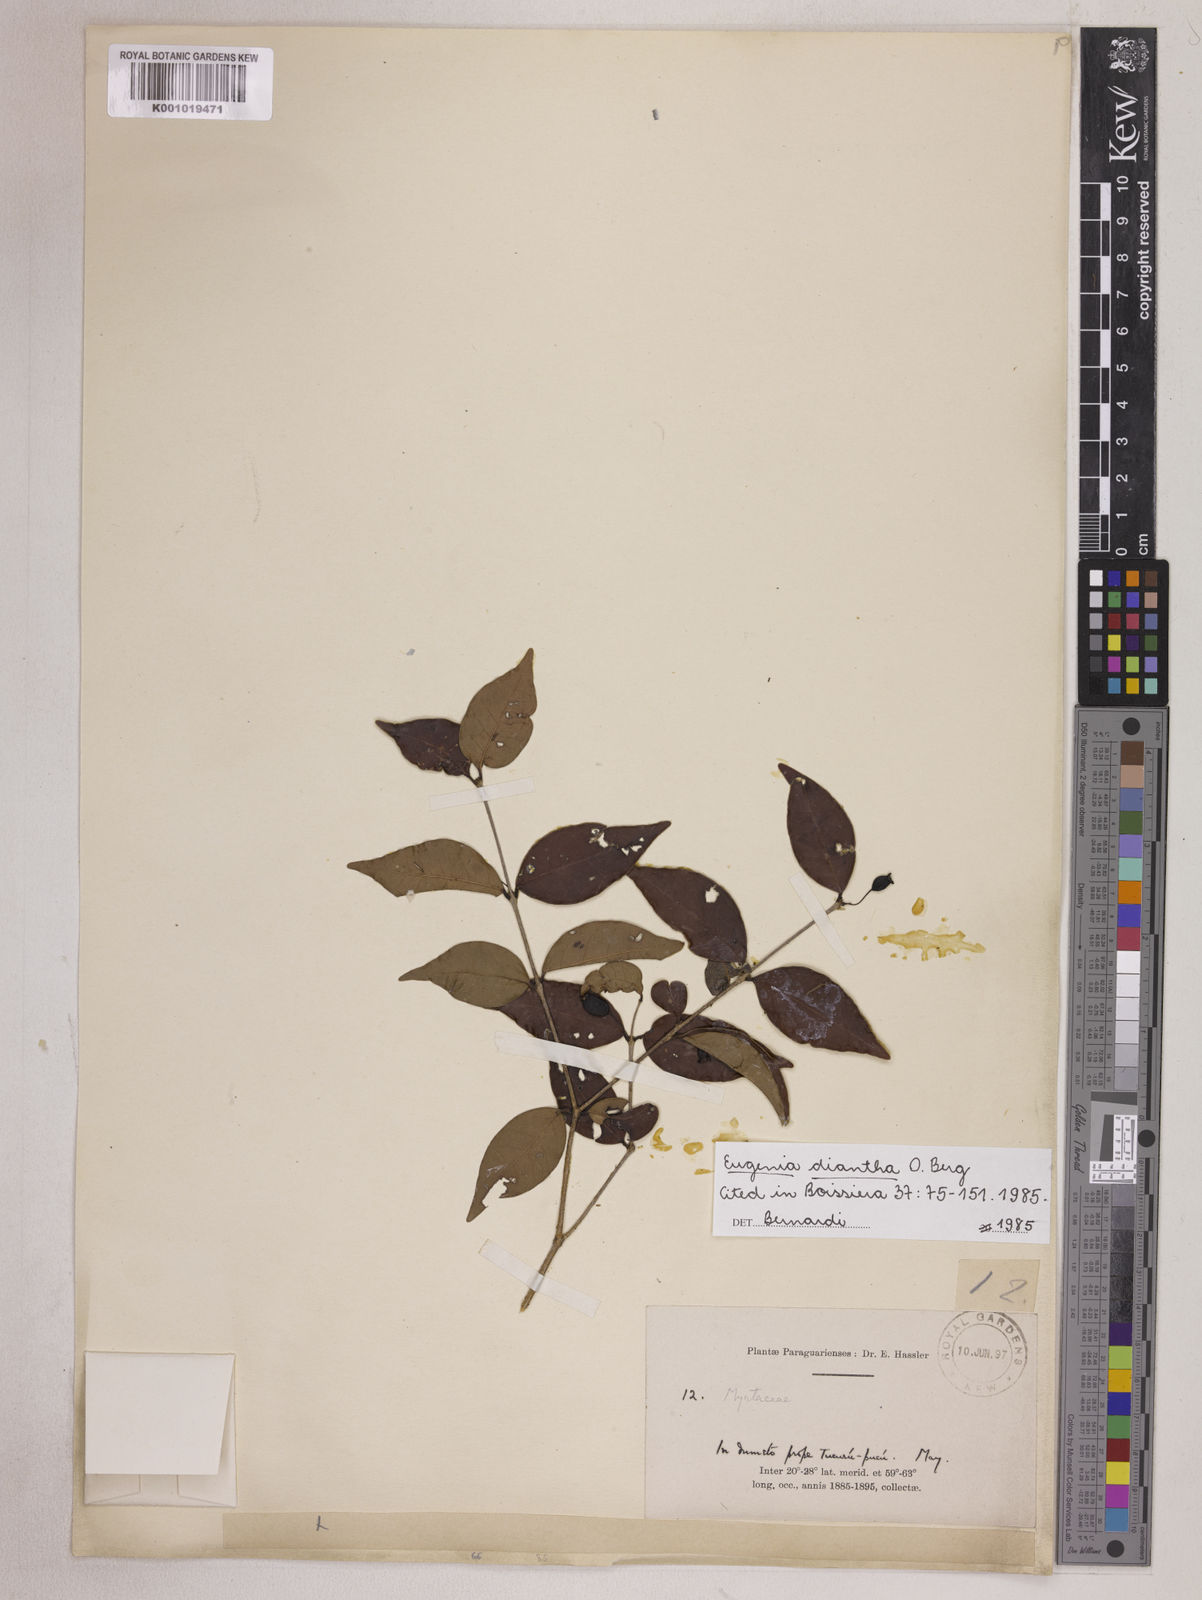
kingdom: Plantae
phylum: Tracheophyta
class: Magnoliopsida
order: Myrtales
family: Myrtaceae
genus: Eugenia
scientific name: Eugenia punicifolia
